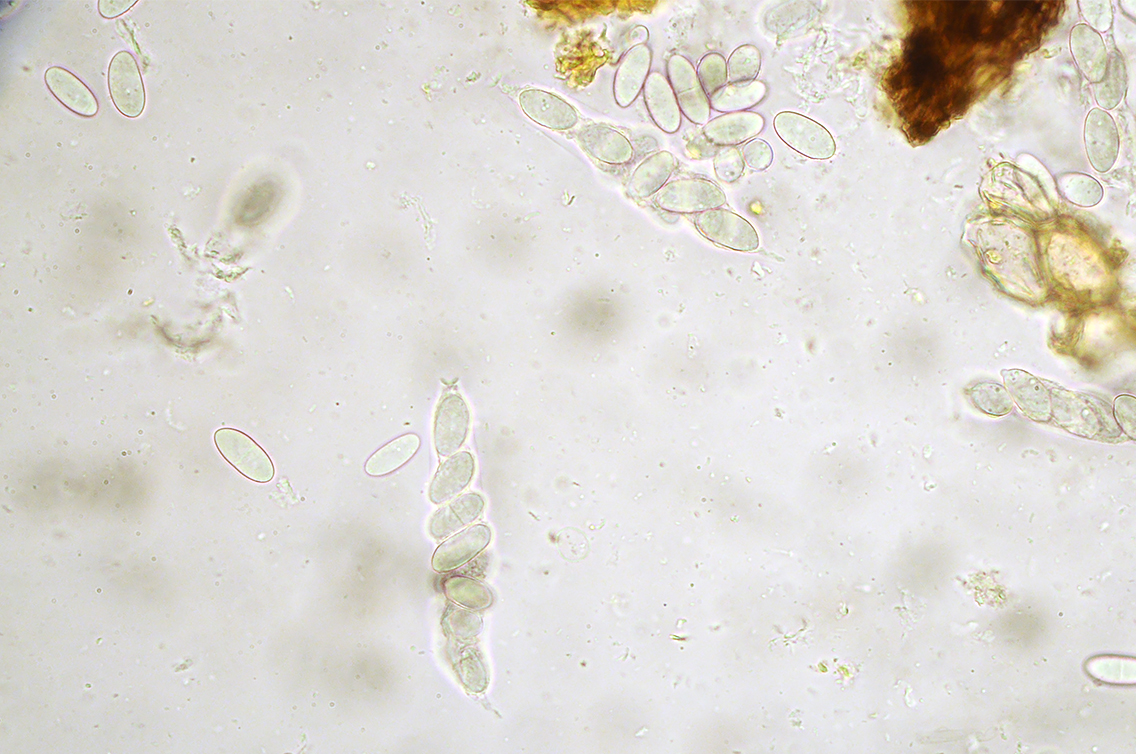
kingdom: Fungi
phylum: Ascomycota
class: Sordariomycetes
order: Diaporthales
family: Gnomoniaceae
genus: Plagiostoma
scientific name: Plagiostoma populinum
